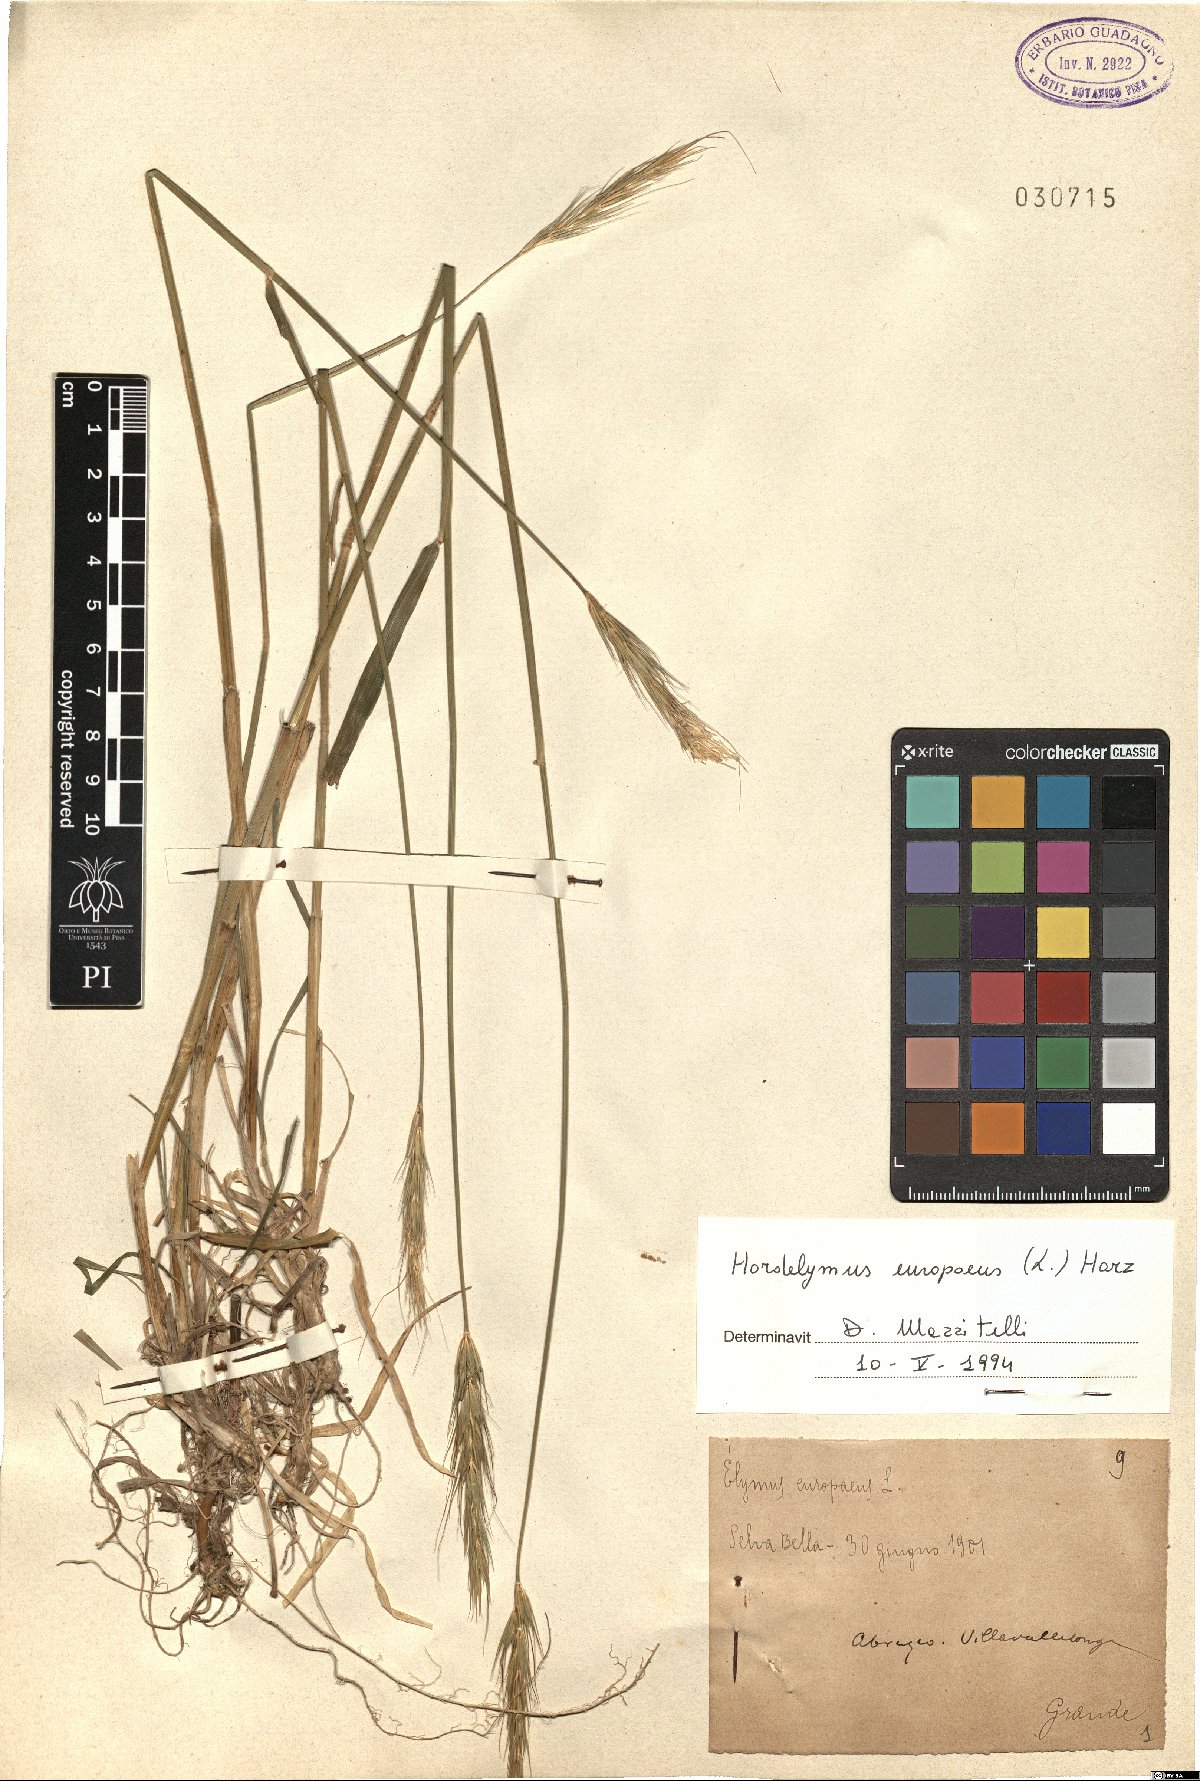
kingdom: Plantae
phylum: Tracheophyta
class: Liliopsida
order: Poales
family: Poaceae
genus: Hordelymus
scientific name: Hordelymus europaeus
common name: Wood-barley
